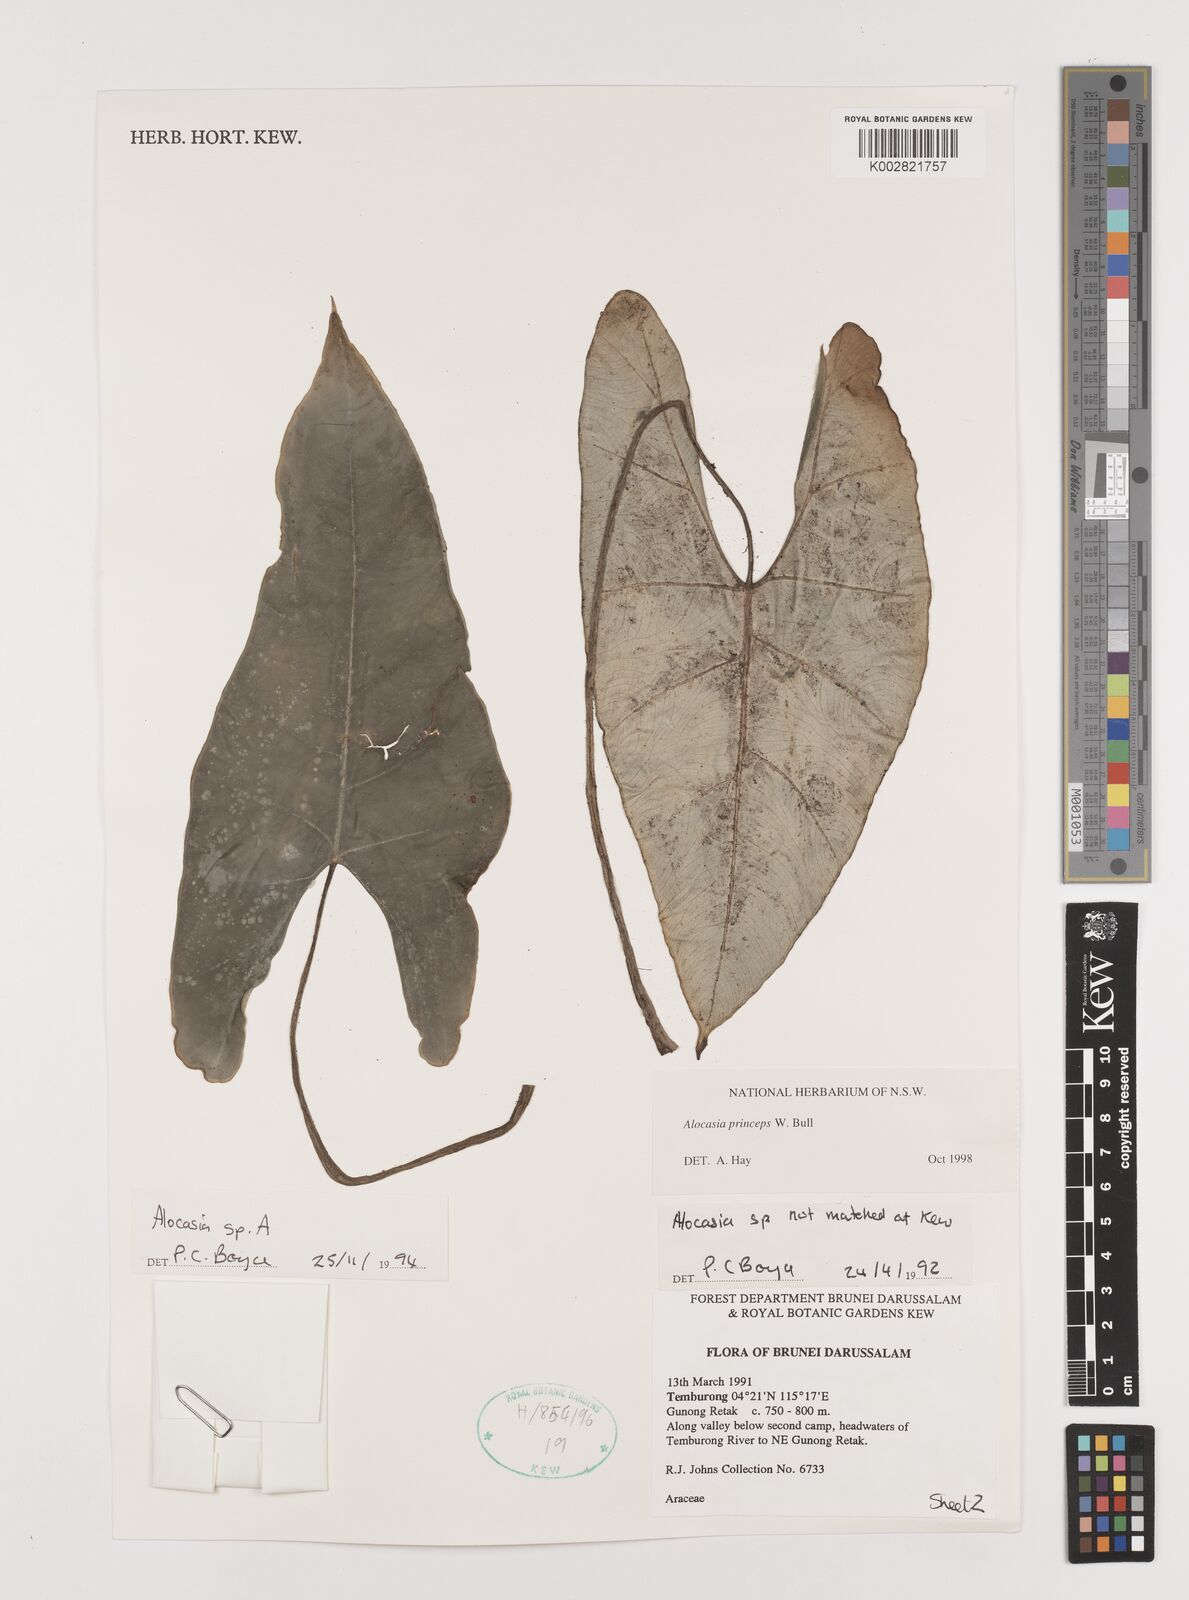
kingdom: Plantae
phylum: Tracheophyta
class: Liliopsida
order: Alismatales
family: Araceae
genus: Alocasia
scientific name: Alocasia princeps
